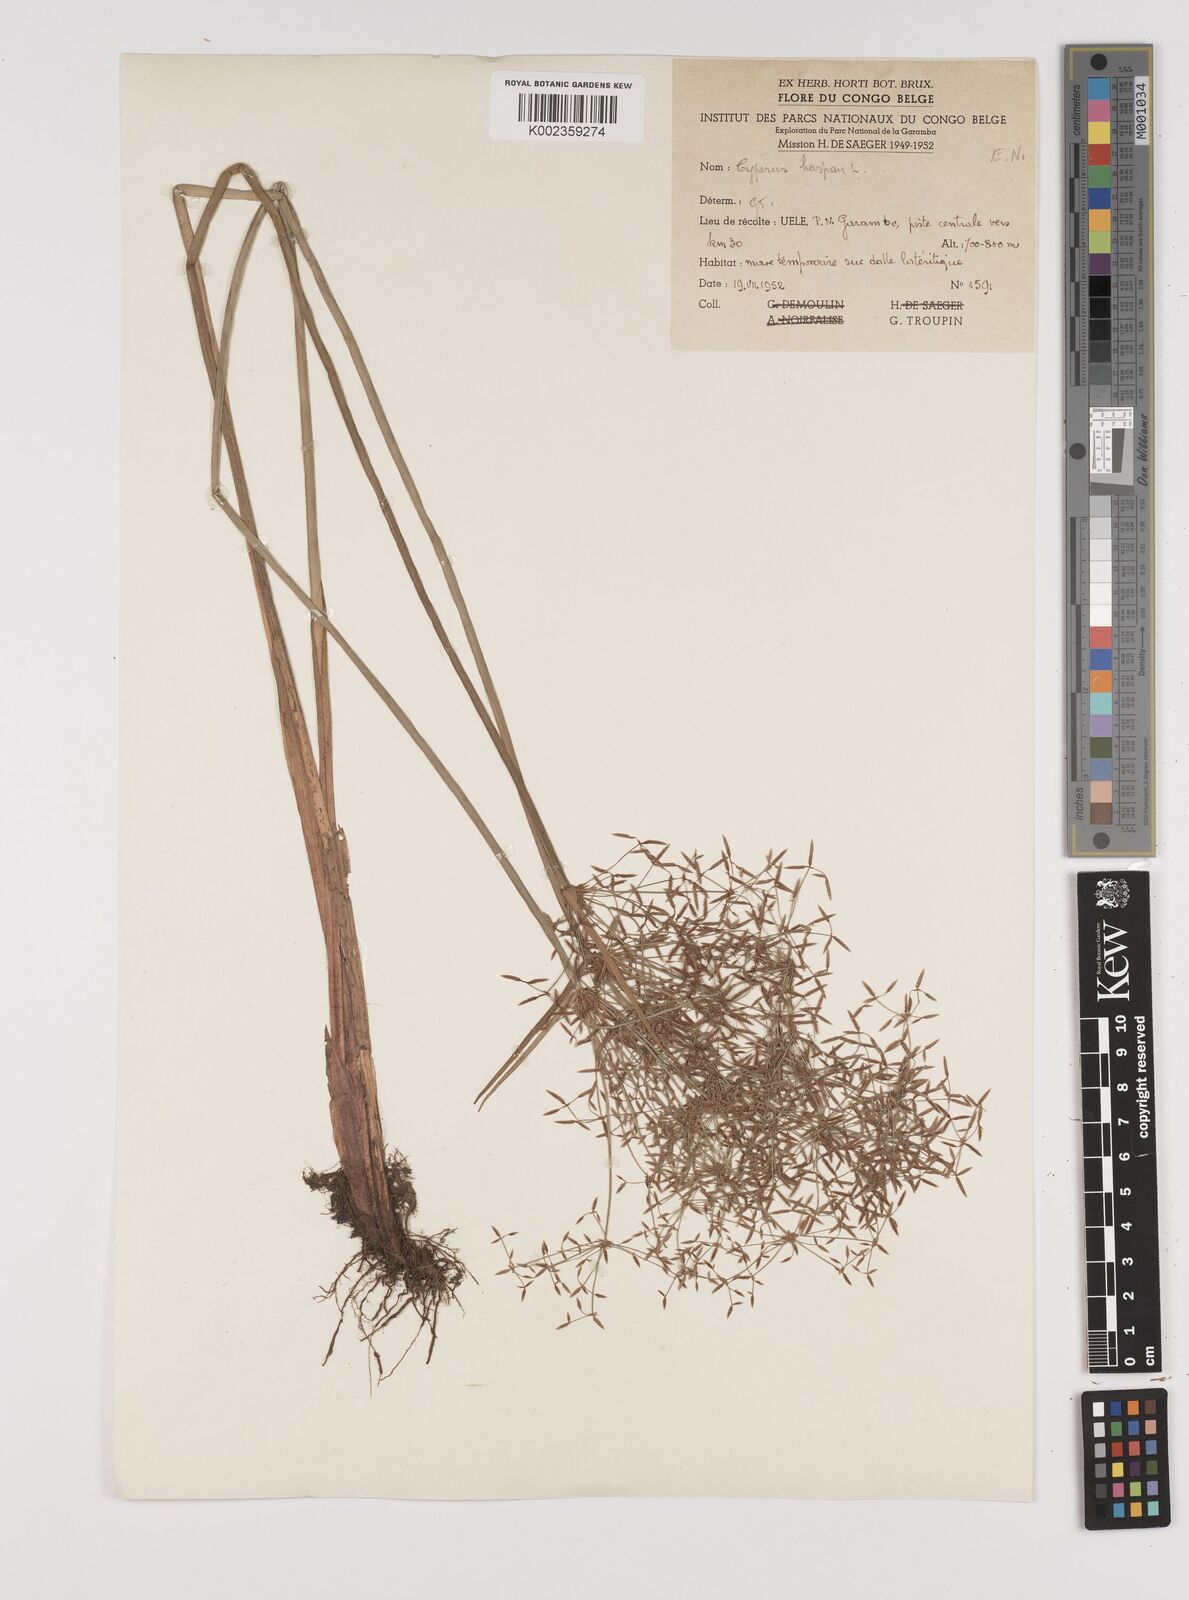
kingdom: Plantae
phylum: Tracheophyta
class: Liliopsida
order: Poales
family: Cyperaceae
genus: Cyperus
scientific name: Cyperus haspan
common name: Haspan flatsedge
